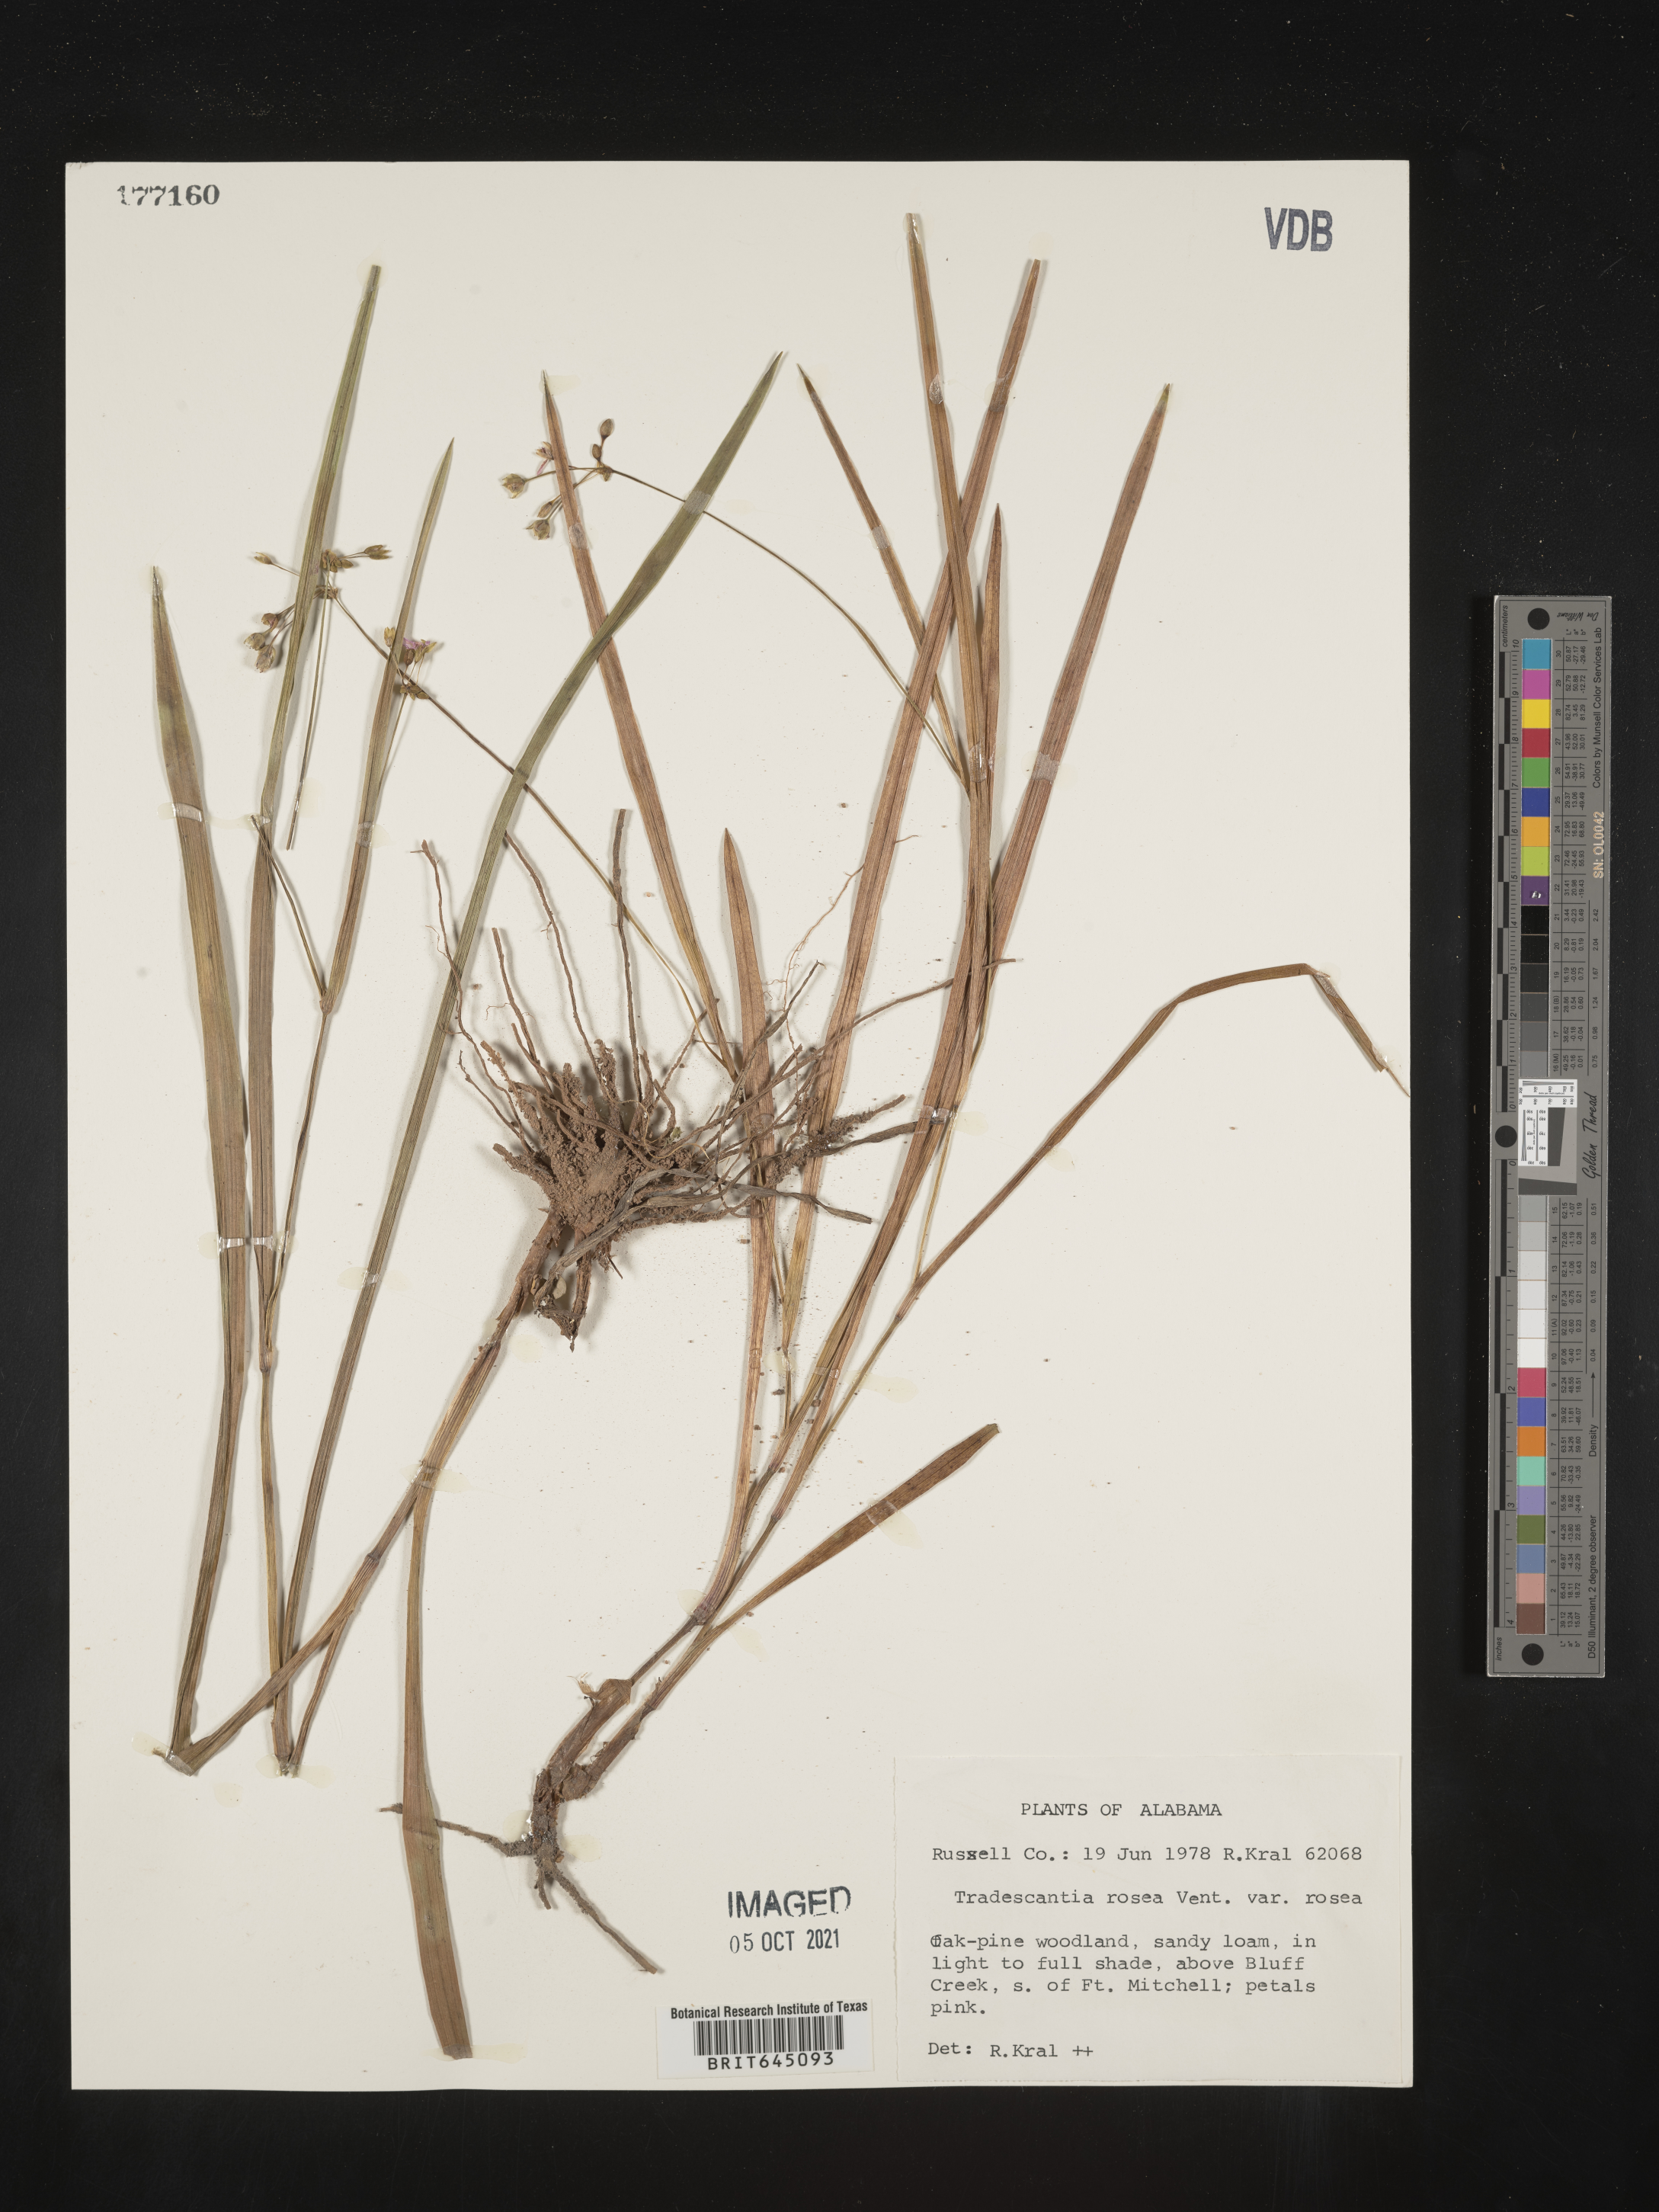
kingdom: Plantae
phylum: Tracheophyta
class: Liliopsida
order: Commelinales
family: Commelinaceae
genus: Callisia
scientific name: Callisia rosea
